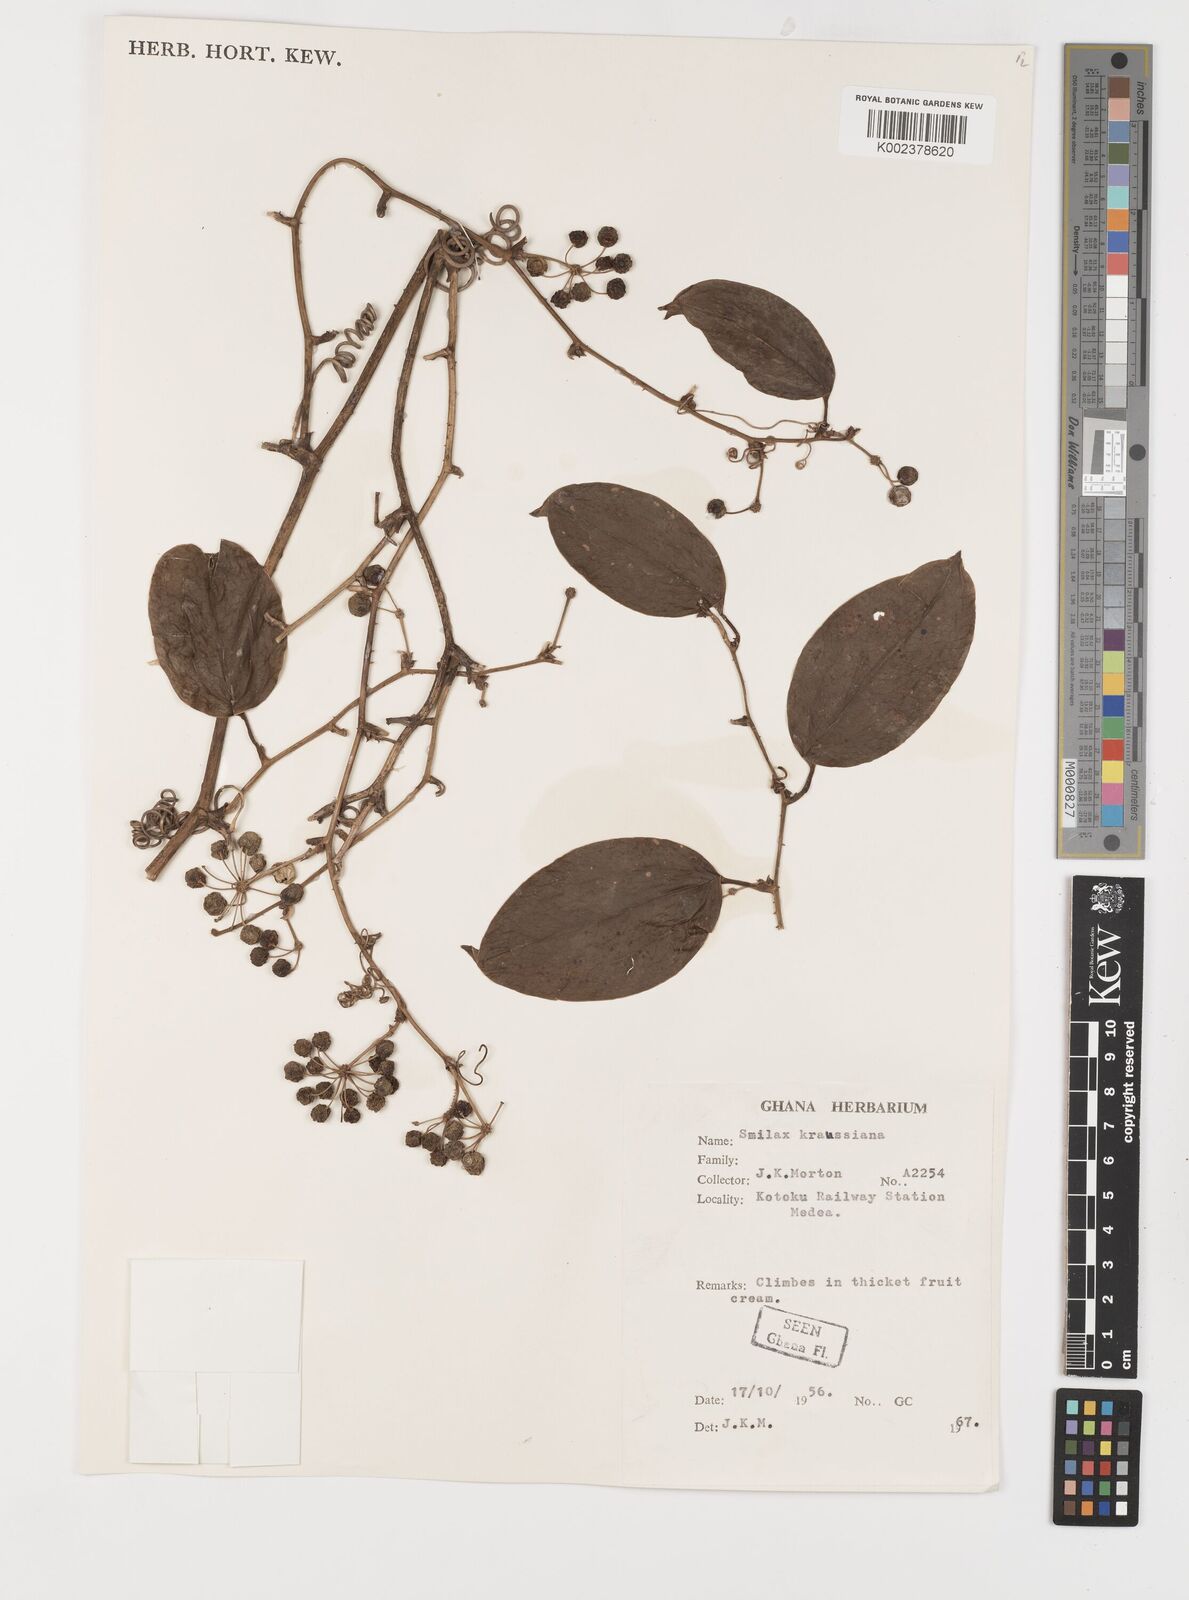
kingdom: Plantae
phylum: Tracheophyta
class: Liliopsida
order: Liliales
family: Smilacaceae
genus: Smilax
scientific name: Smilax anceps
